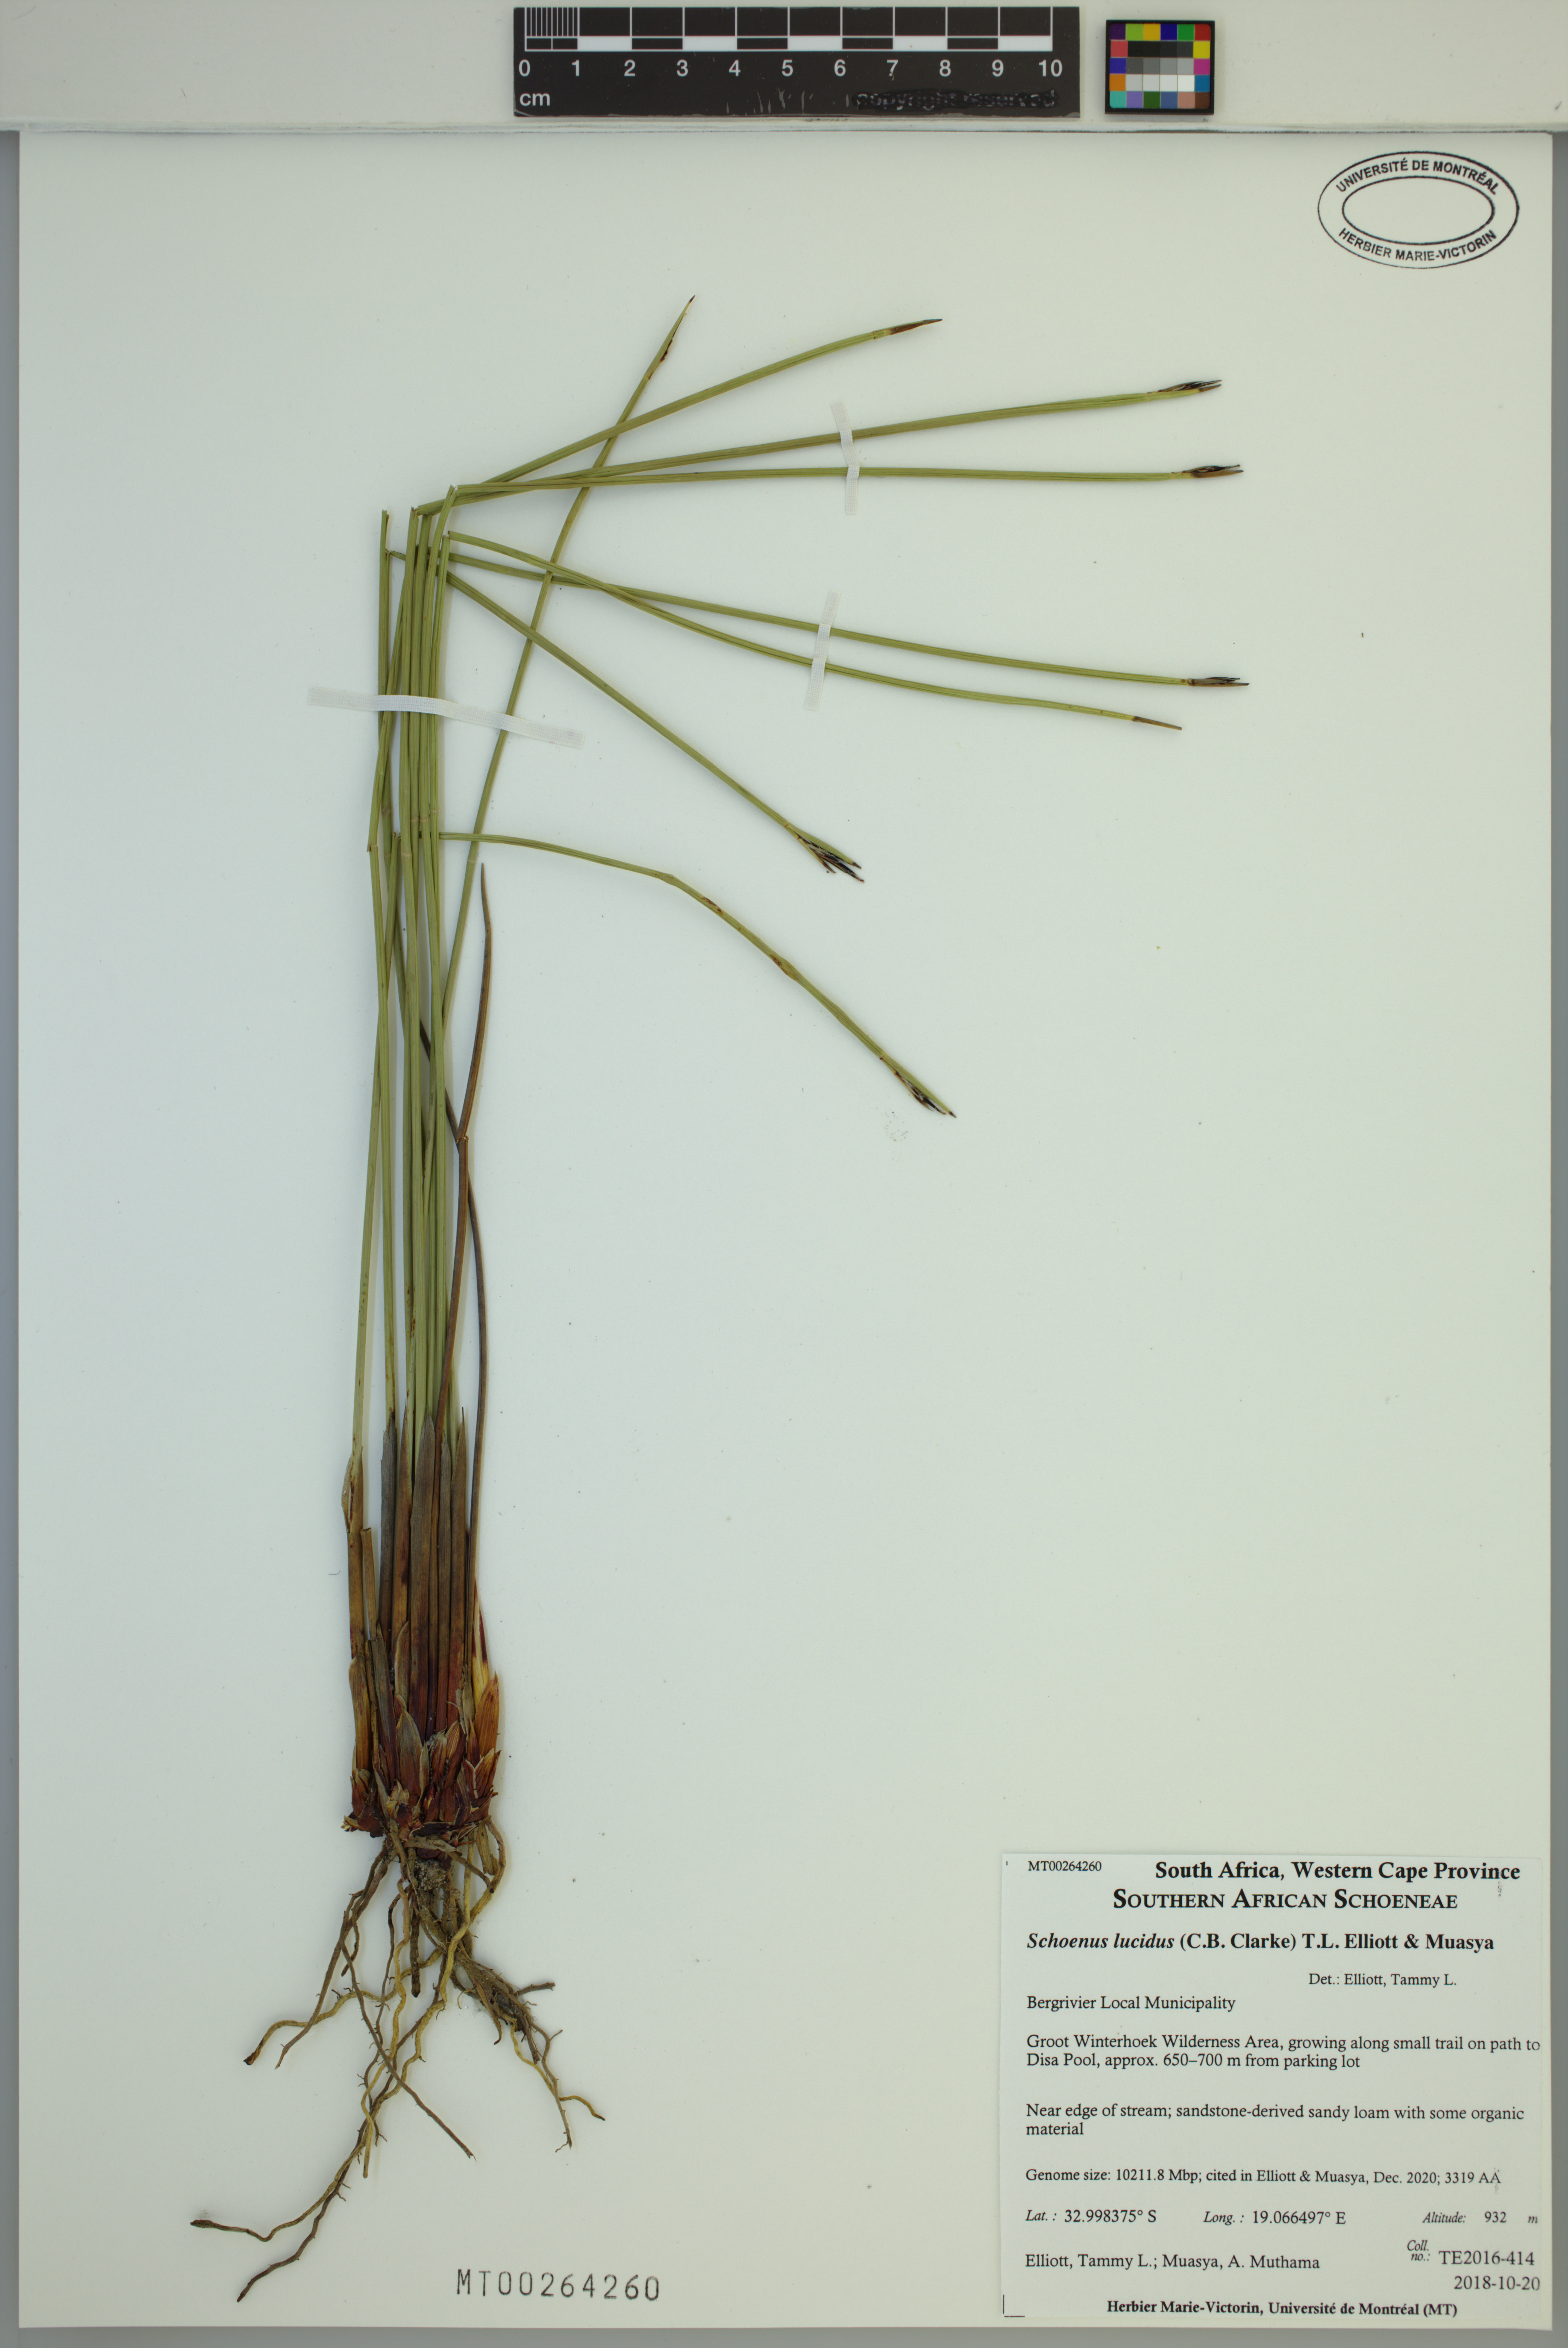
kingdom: Plantae
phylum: Tracheophyta
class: Liliopsida
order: Poales
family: Cyperaceae
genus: Schoenus
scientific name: Schoenus lucidus
